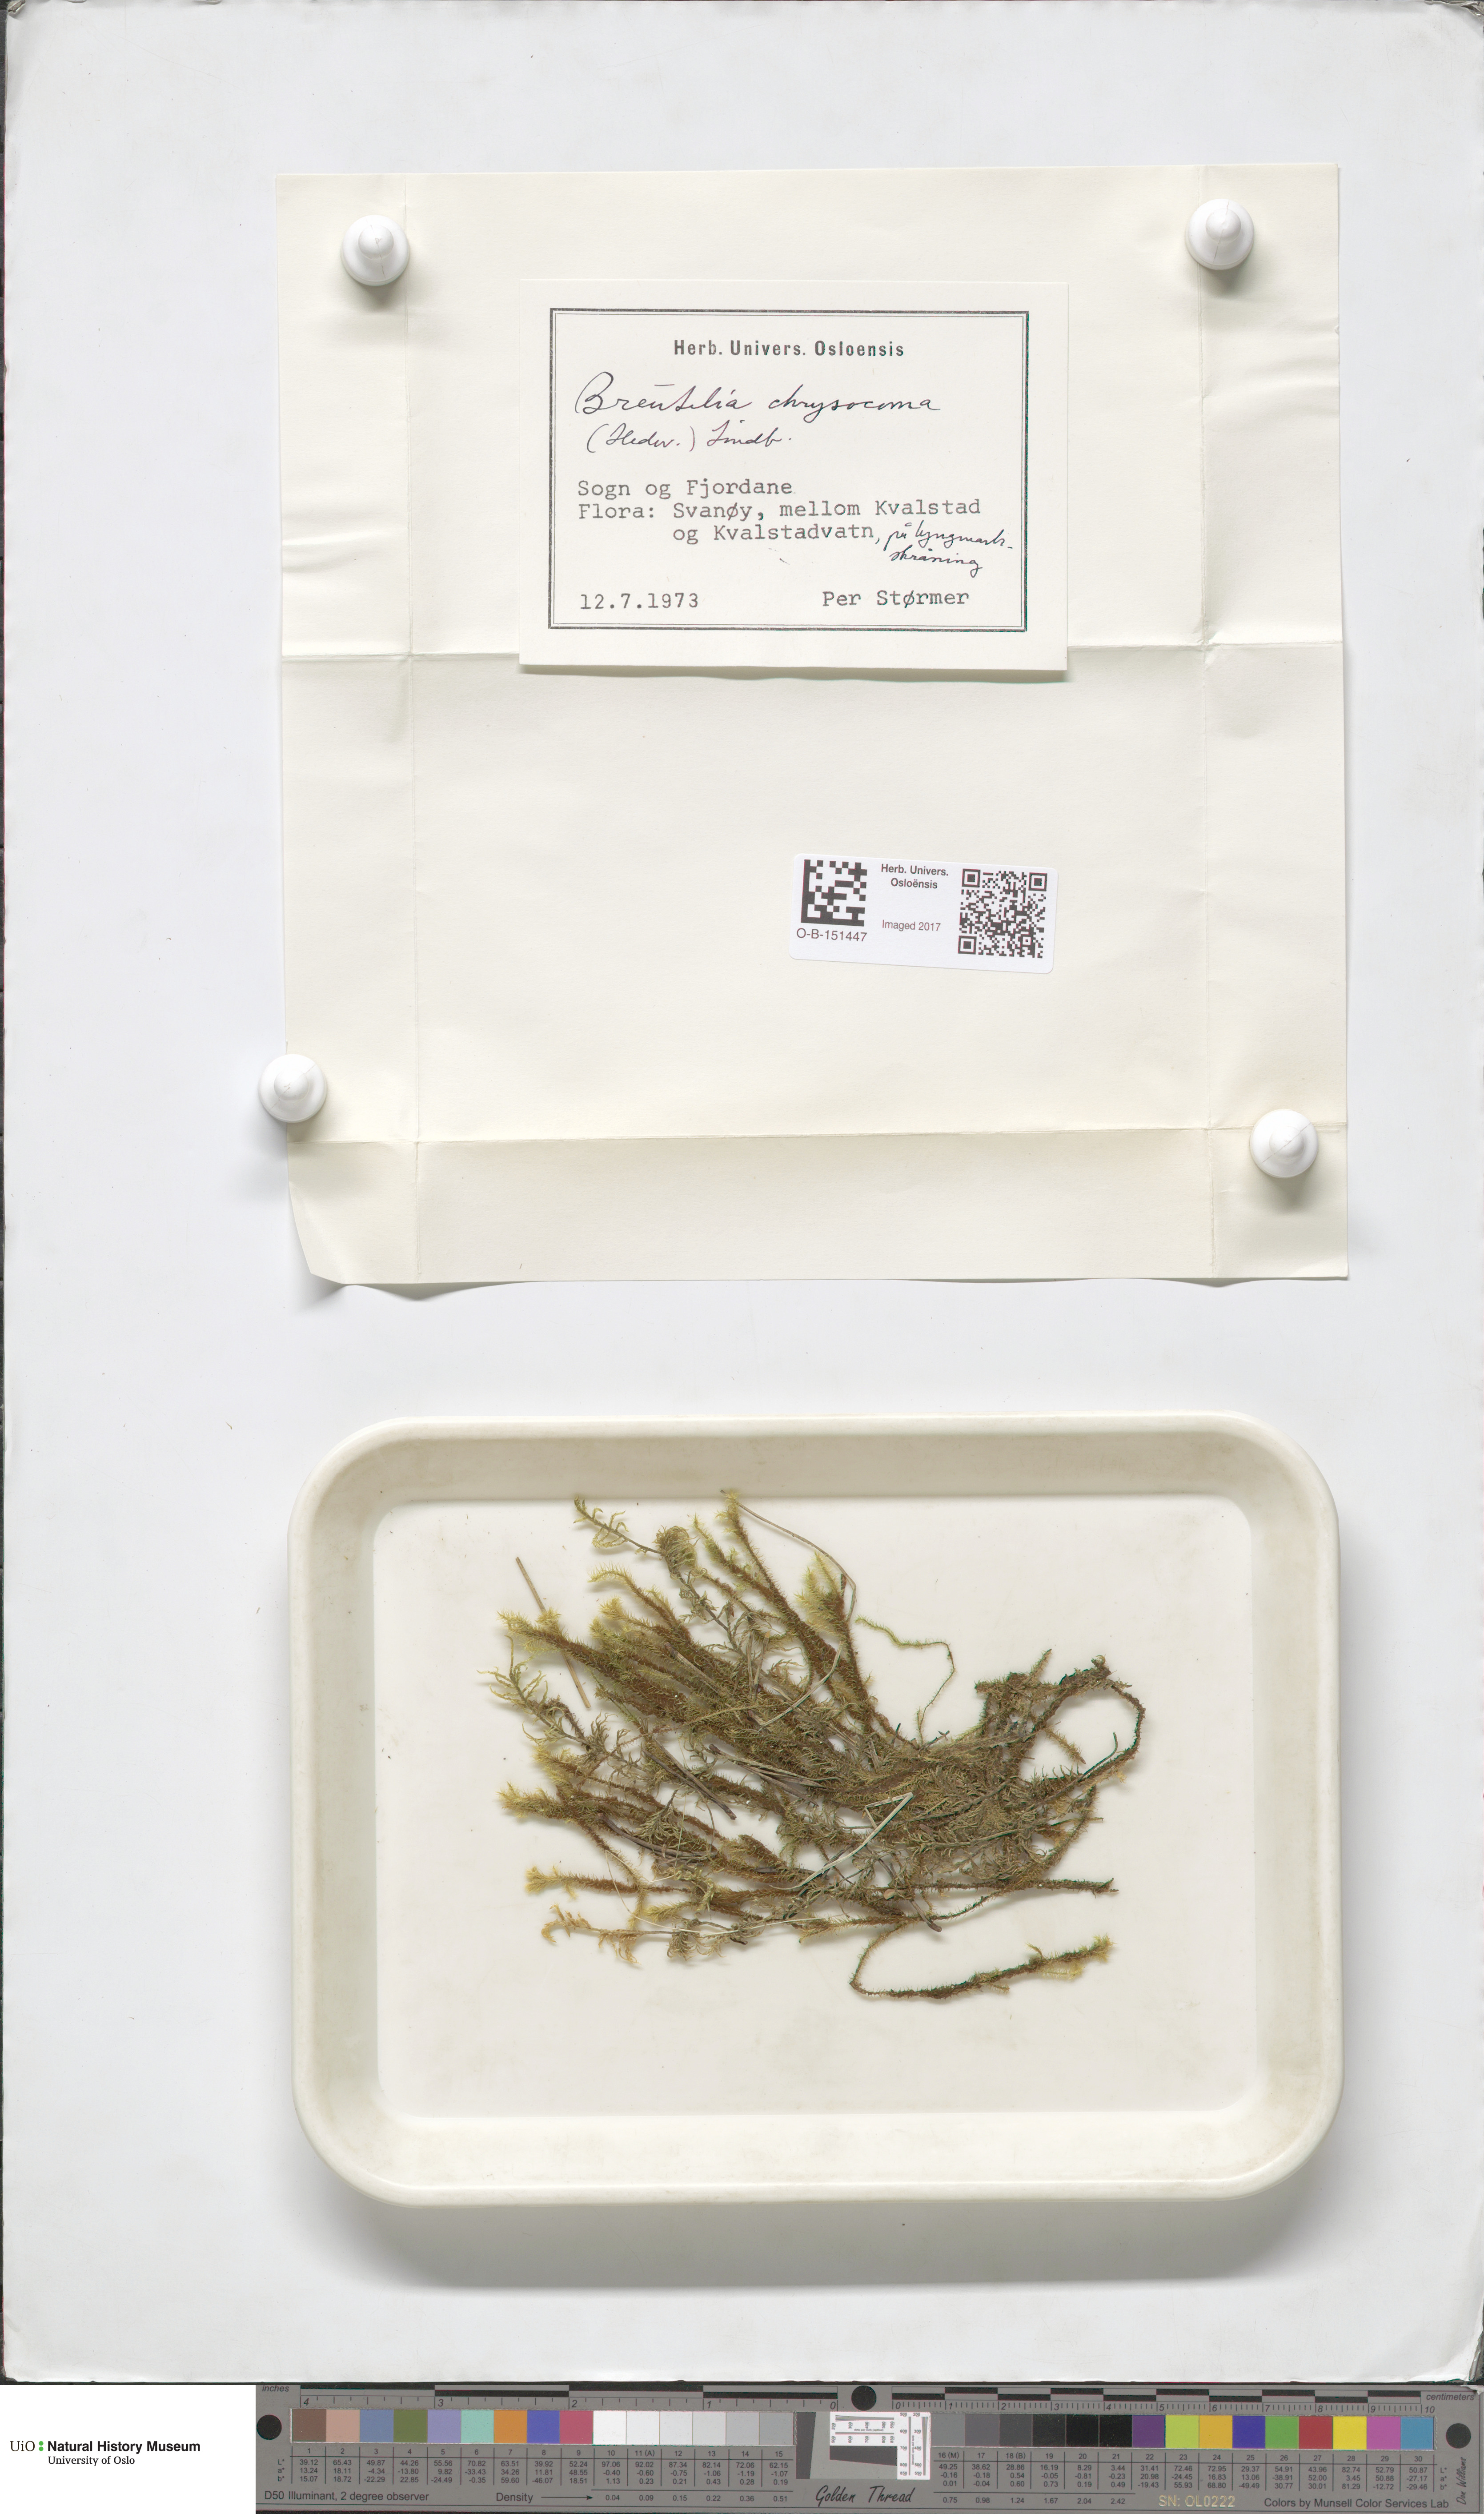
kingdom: Plantae
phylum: Bryophyta
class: Bryopsida
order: Bartramiales
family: Bartramiaceae
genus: Breutelia
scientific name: Breutelia chrysocoma
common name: Bottle-brush moss
